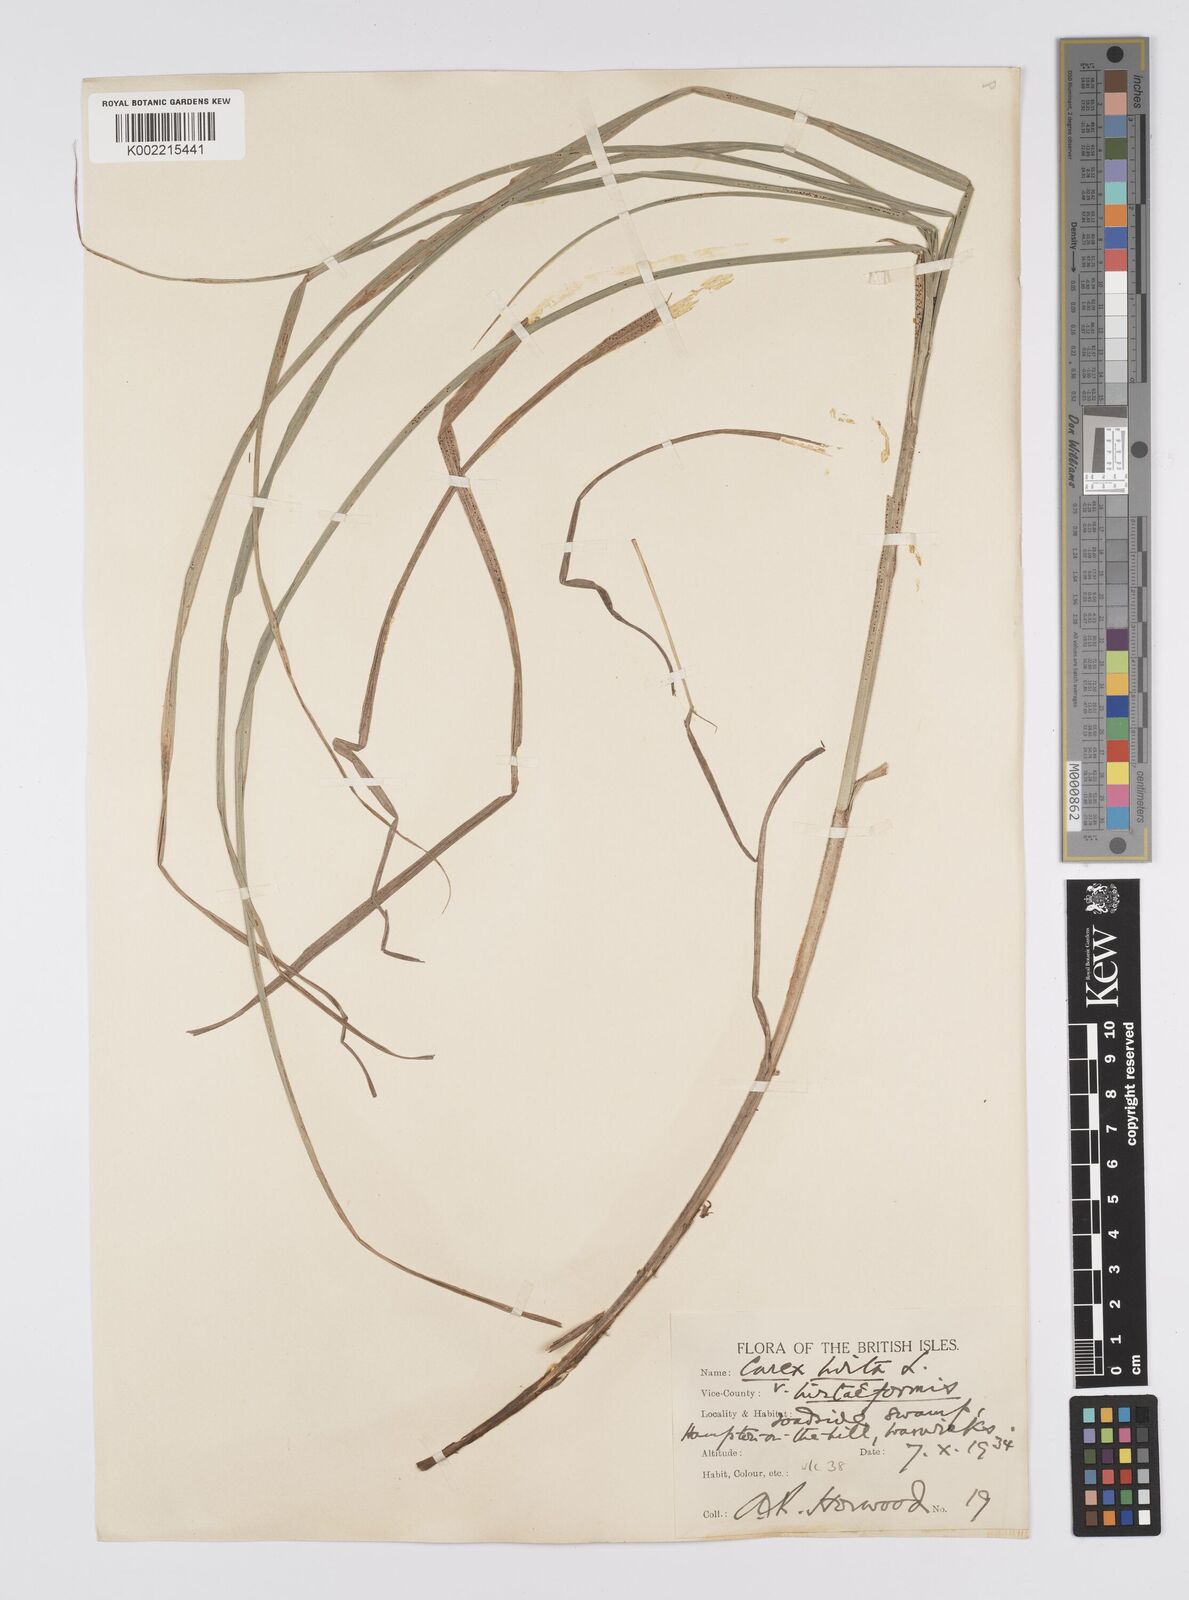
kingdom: Plantae
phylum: Tracheophyta
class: Liliopsida
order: Poales
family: Cyperaceae
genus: Carex
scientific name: Carex hirta
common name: Hairy sedge
